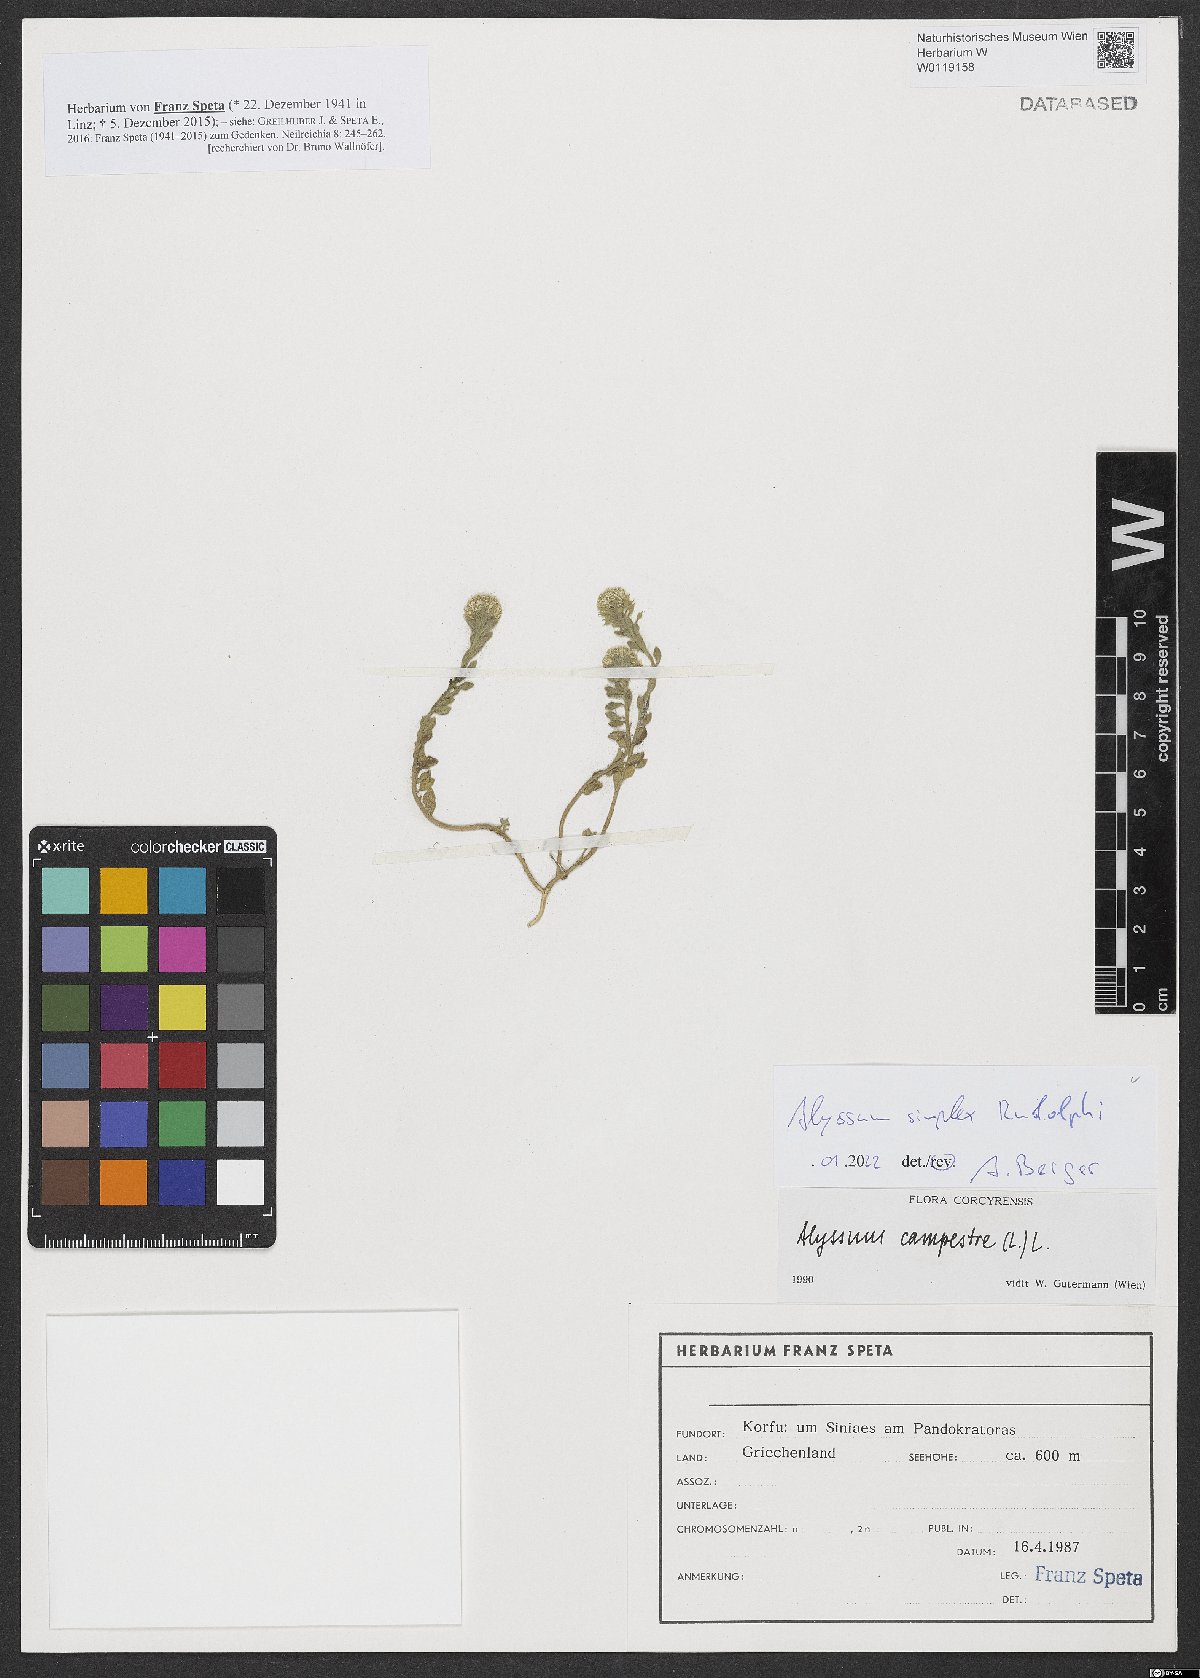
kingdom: Plantae
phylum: Tracheophyta
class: Magnoliopsida
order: Brassicales
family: Brassicaceae
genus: Alyssum
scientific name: Alyssum simplex
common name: Alyssum
